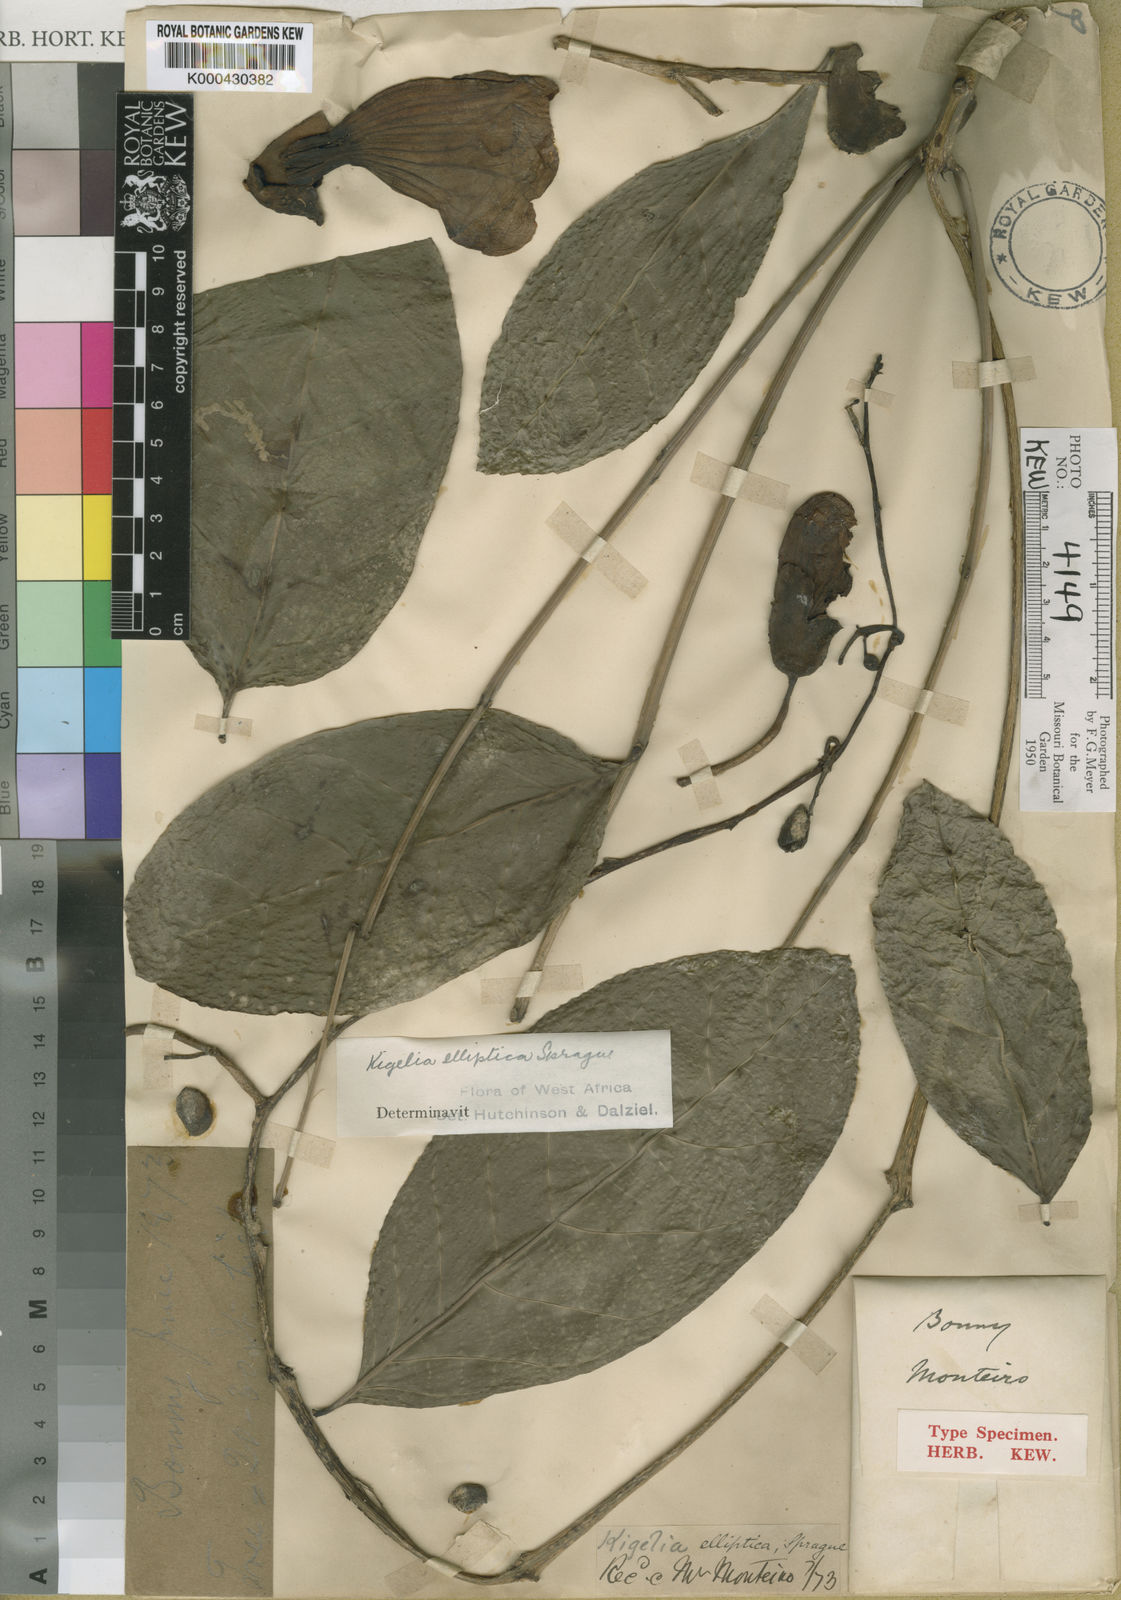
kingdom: Plantae
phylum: Tracheophyta
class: Magnoliopsida
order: Lamiales
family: Bignoniaceae
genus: Kigelia
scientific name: Kigelia africana
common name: Sausage tree
